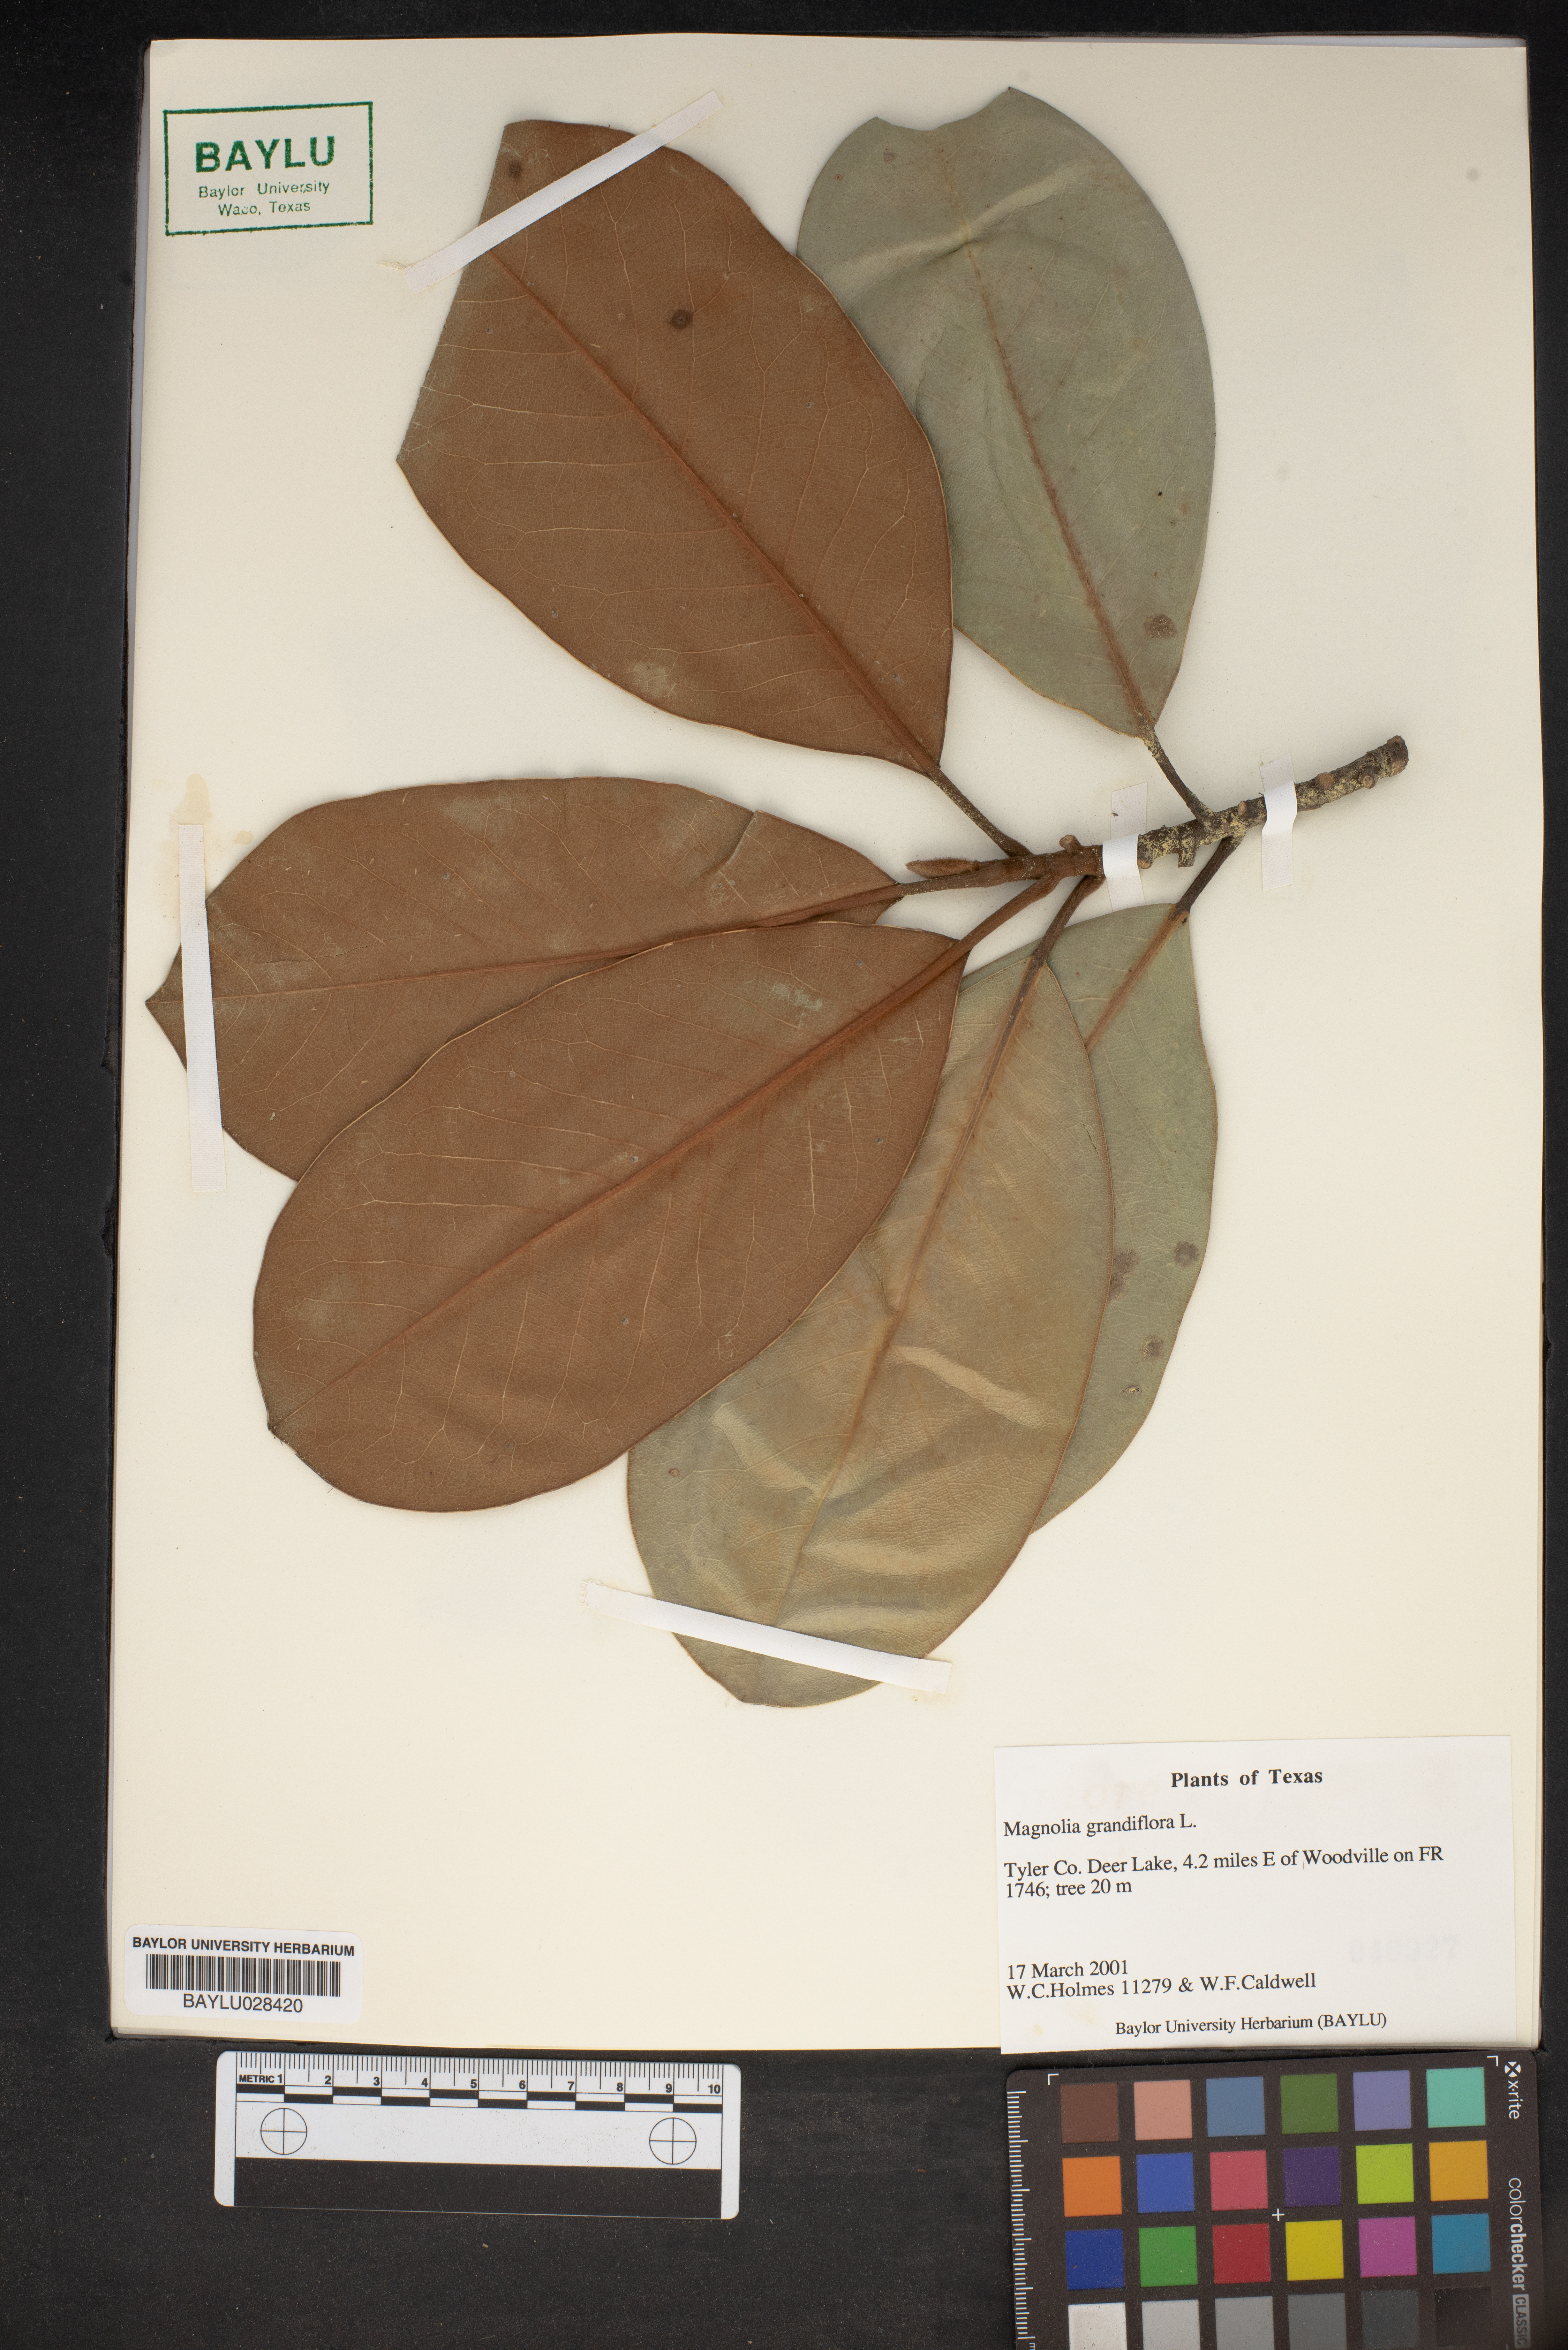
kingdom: Plantae
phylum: Tracheophyta
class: Magnoliopsida
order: Magnoliales
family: Magnoliaceae
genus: Magnolia
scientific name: Magnolia grandiflora
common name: Southern magnolia
